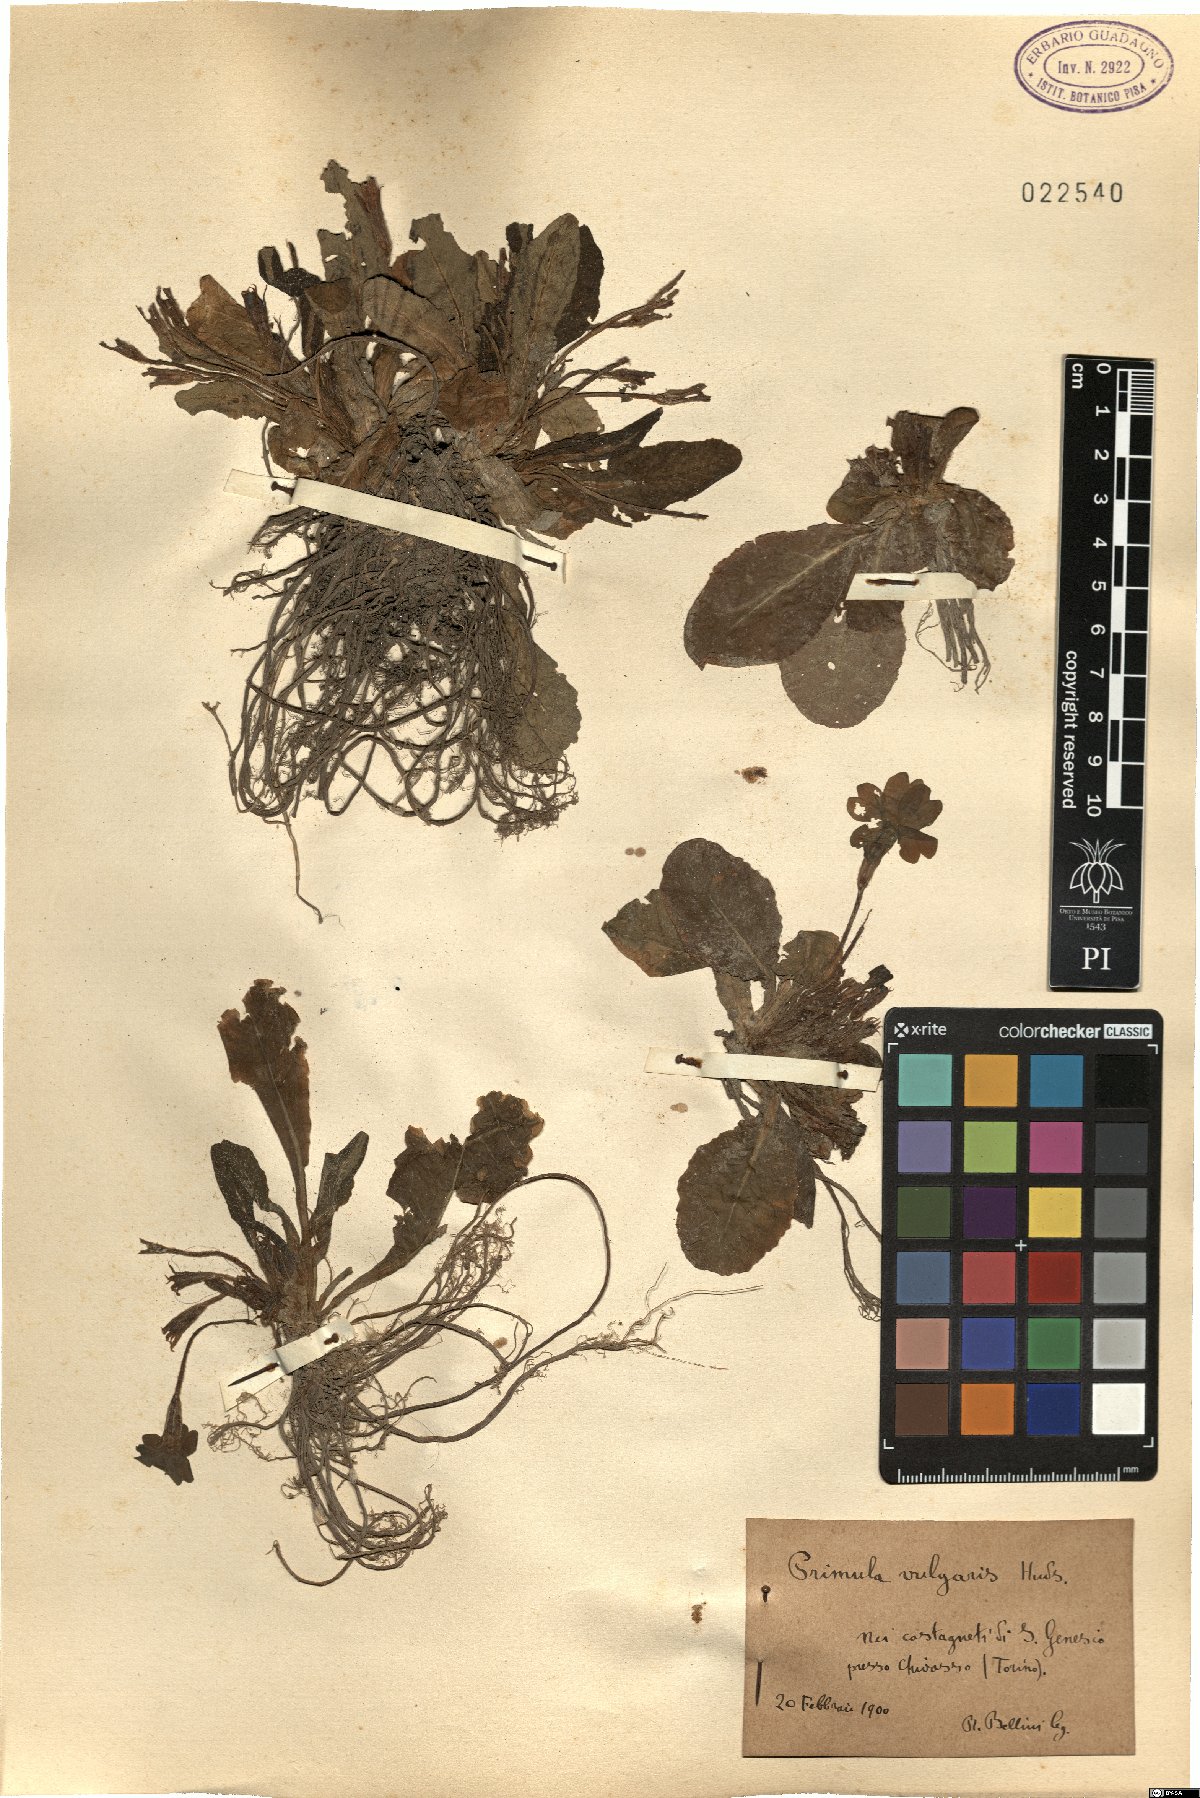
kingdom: Plantae
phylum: Tracheophyta
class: Magnoliopsida
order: Ericales
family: Primulaceae
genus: Primula
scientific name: Primula vulgaris
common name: Primrose
